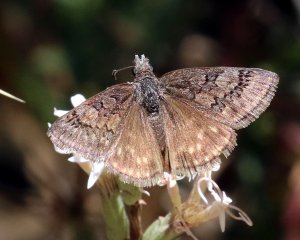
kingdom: Animalia
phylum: Arthropoda
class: Insecta
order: Lepidoptera
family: Hesperiidae
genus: Erynnis
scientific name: Erynnis brizo
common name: Sleepy Duskywing
